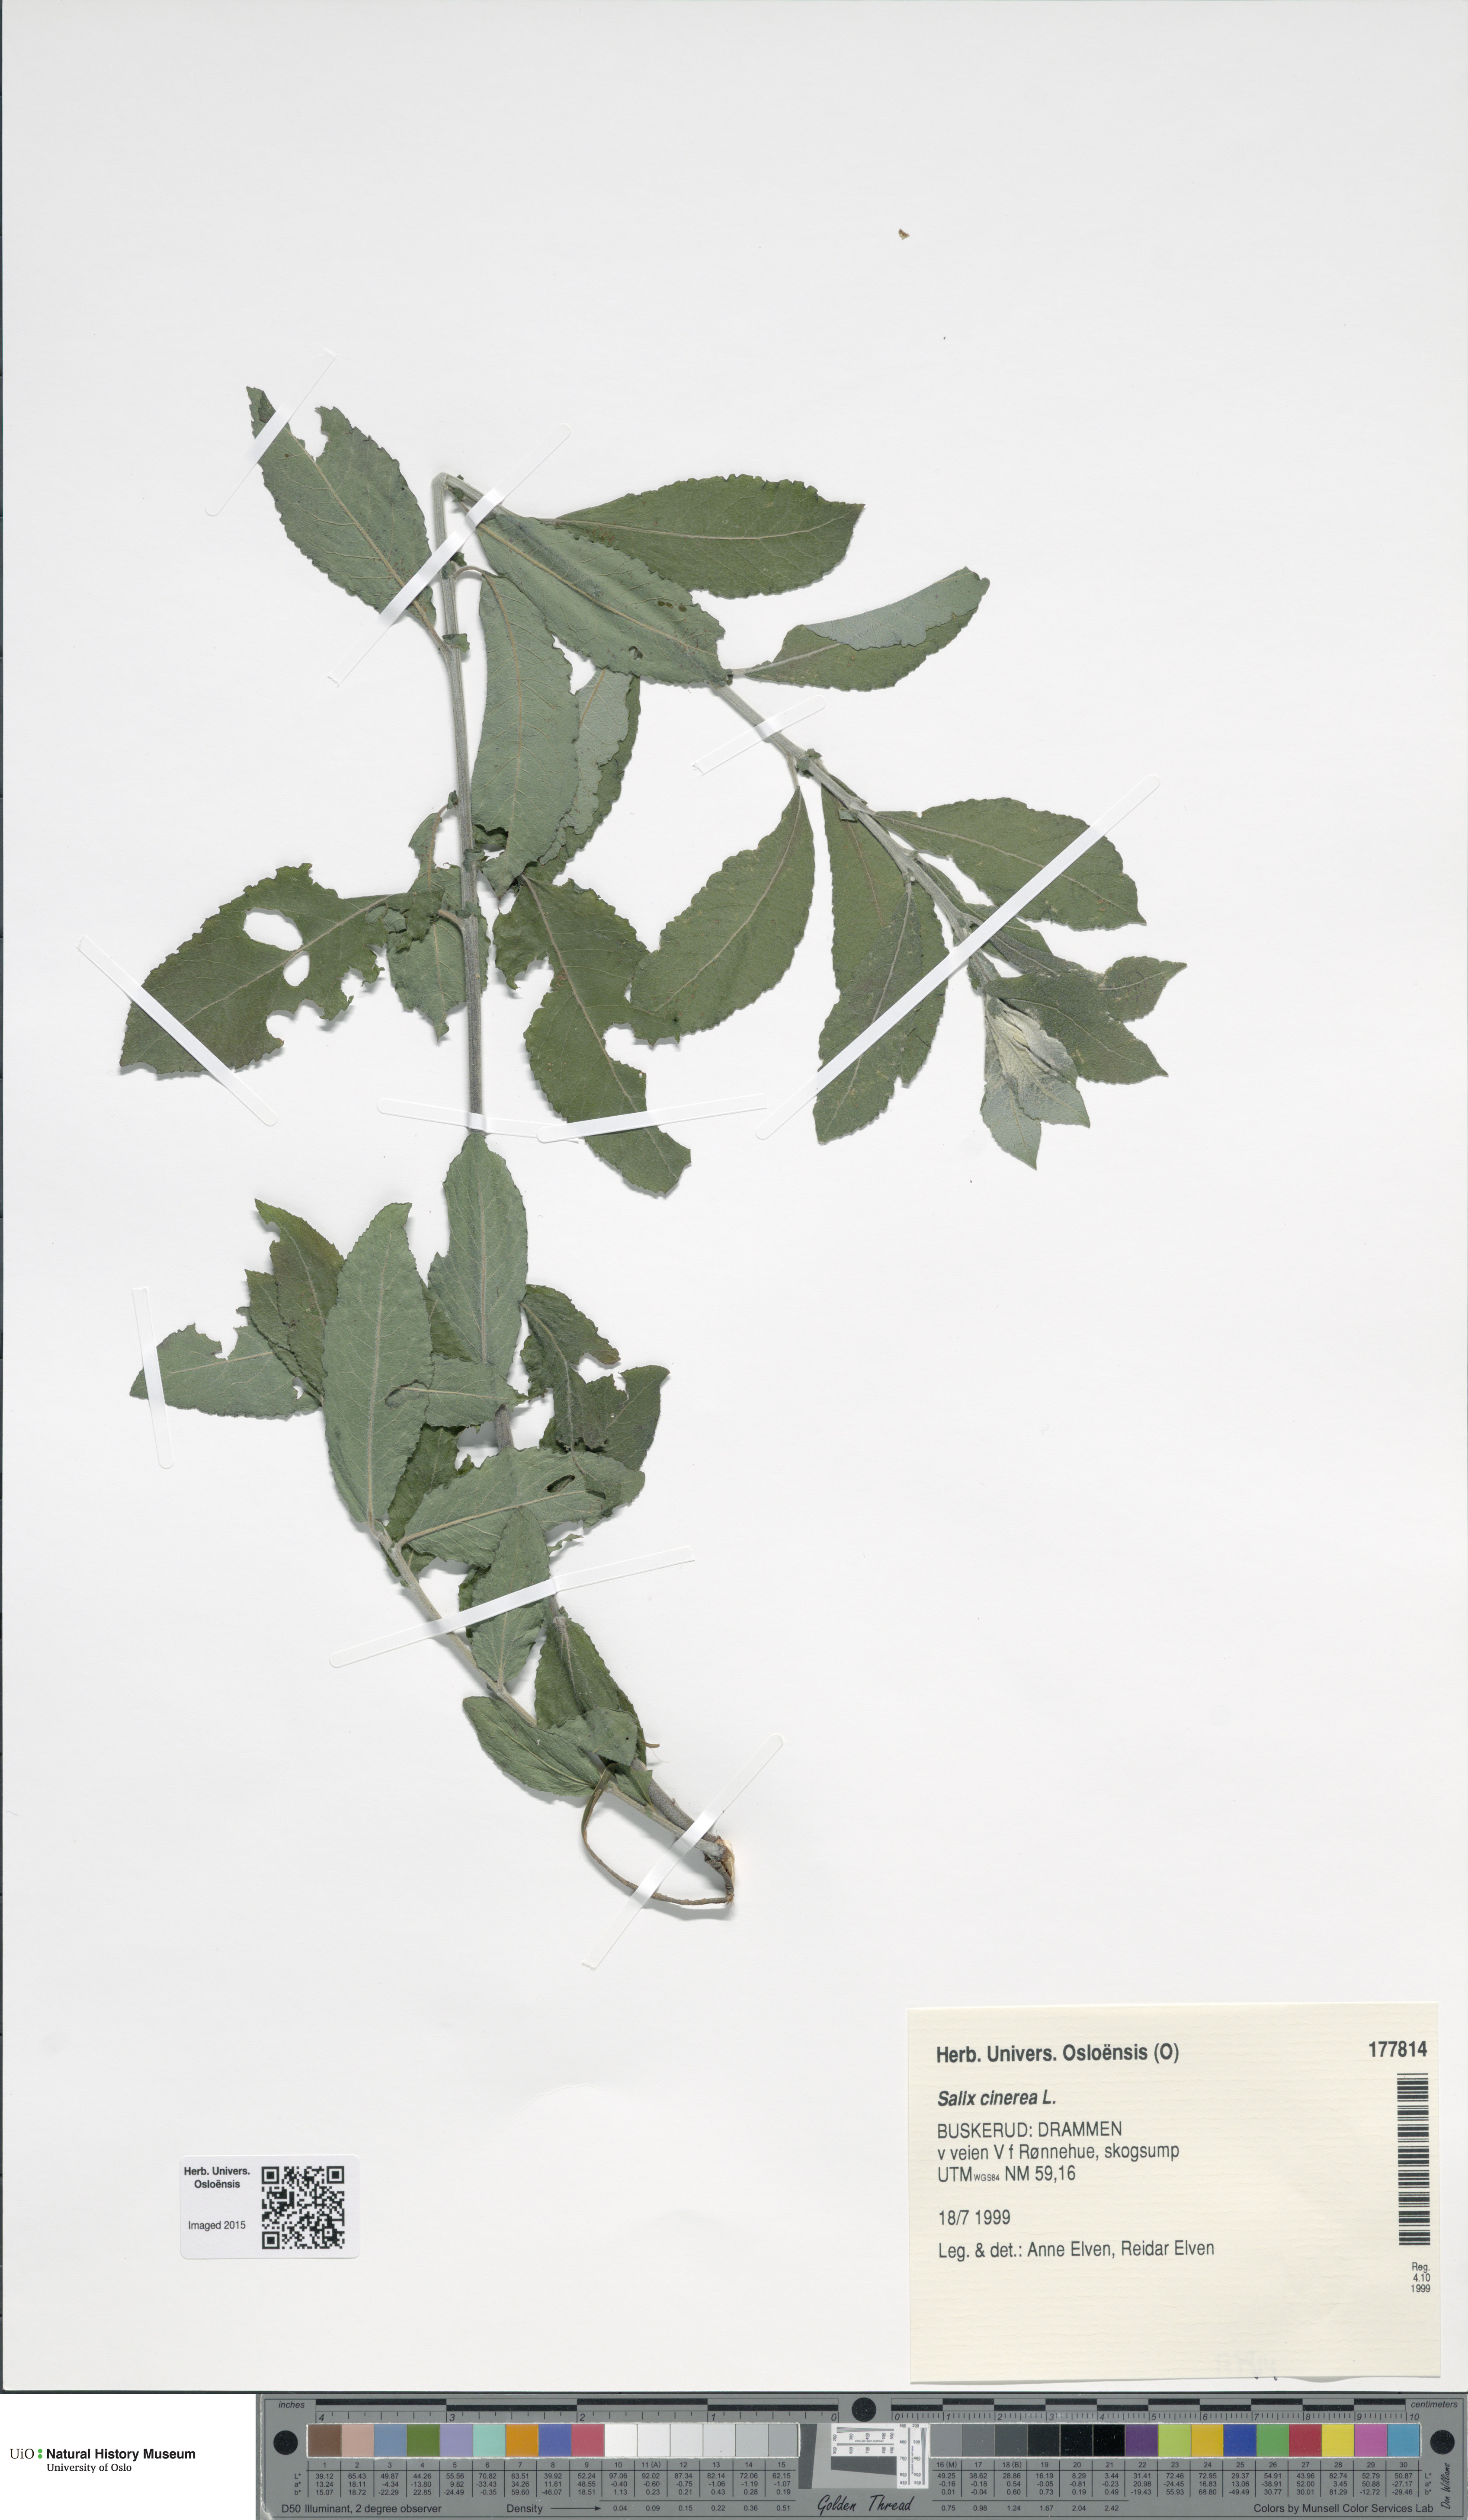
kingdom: Plantae
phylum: Tracheophyta
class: Magnoliopsida
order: Malpighiales
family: Salicaceae
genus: Salix
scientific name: Salix cinerea
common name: Common sallow
